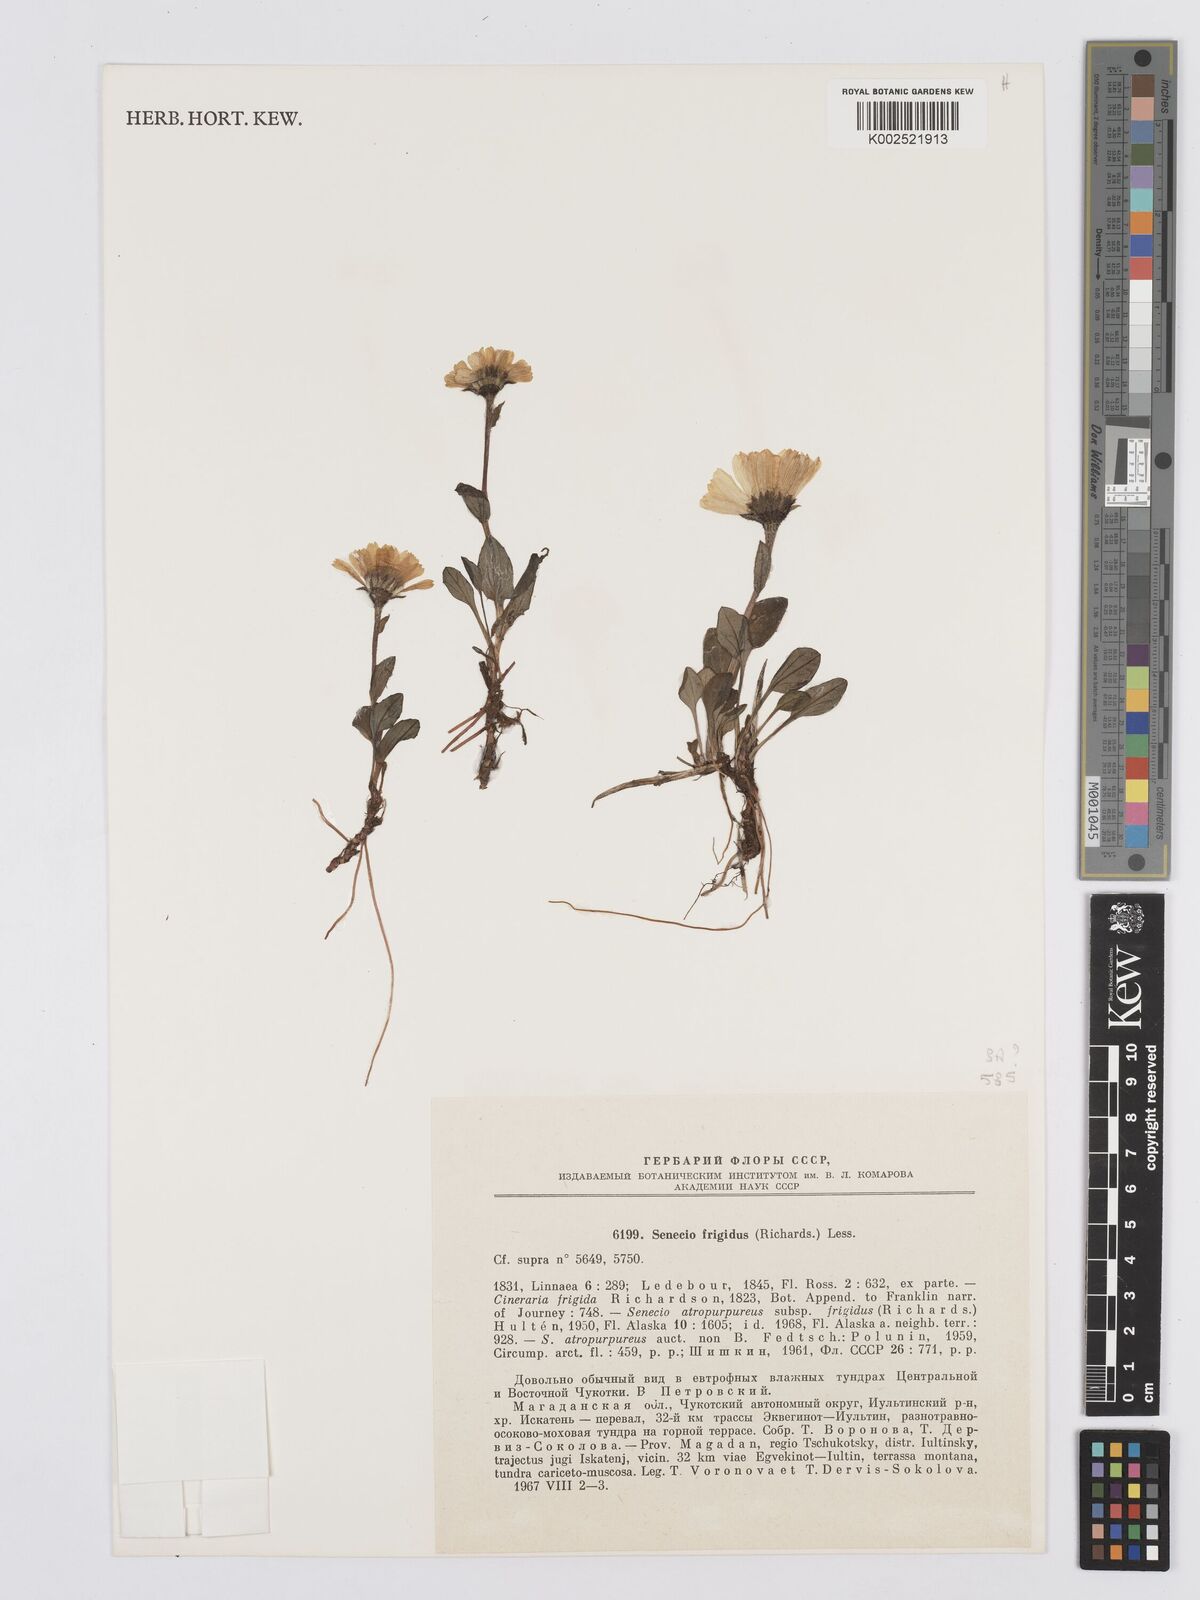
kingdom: Plantae
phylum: Tracheophyta
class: Magnoliopsida
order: Asterales
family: Asteraceae
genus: Tephroseris
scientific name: Tephroseris
